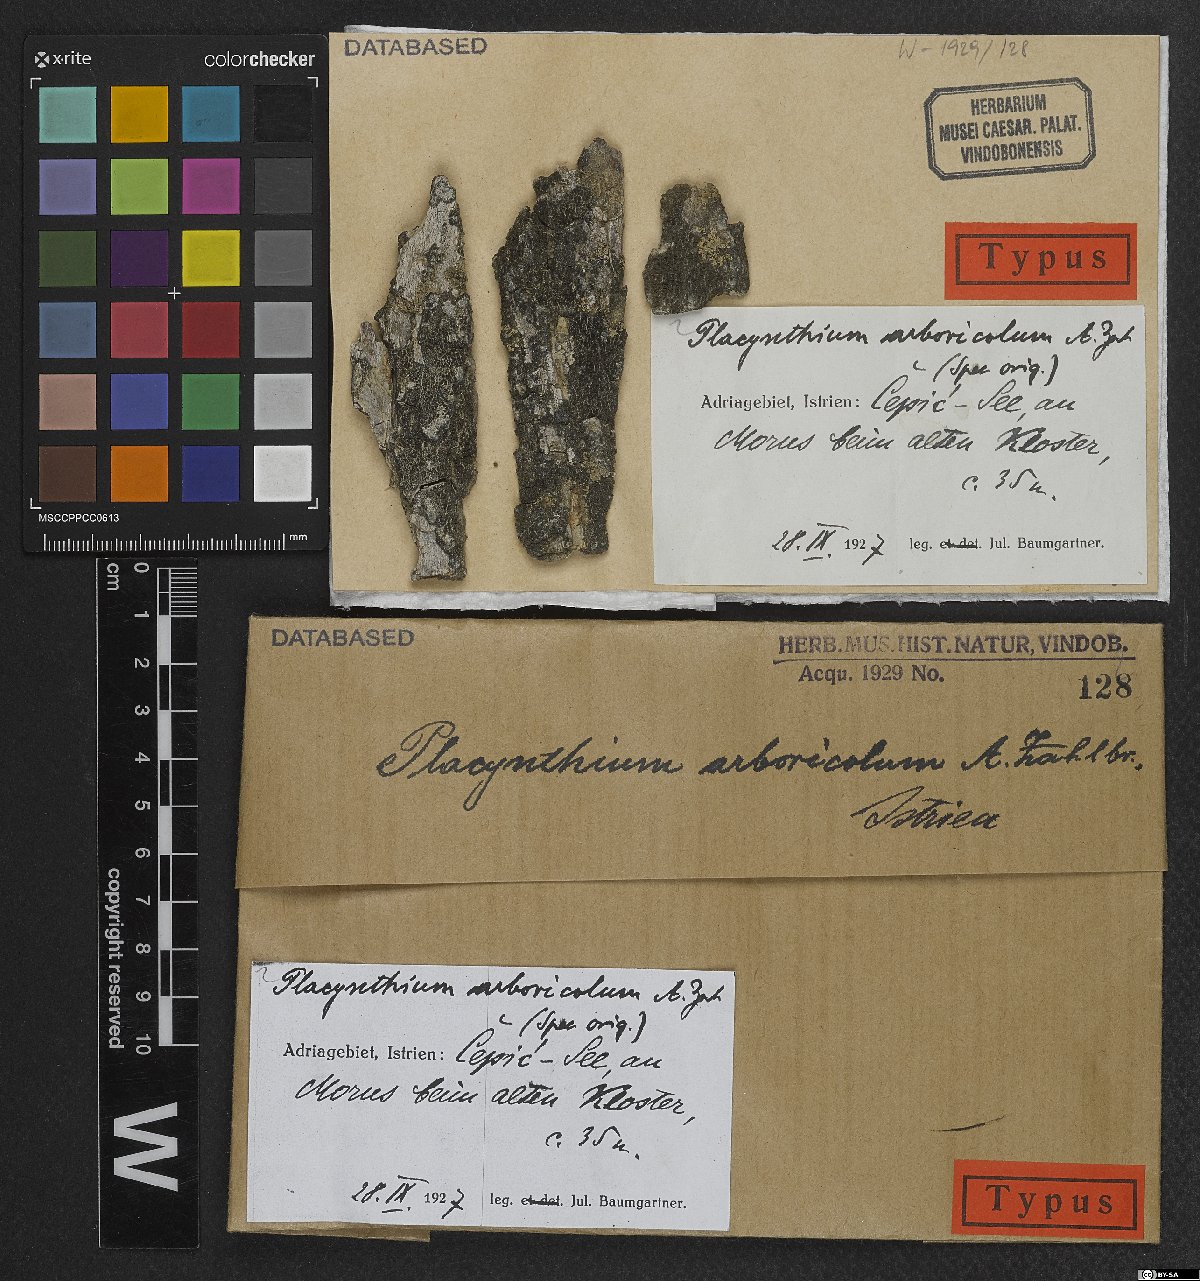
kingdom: Fungi
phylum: Ascomycota
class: Lecanoromycetes
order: Peltigerales
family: Placynthiaceae
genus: Placynthium
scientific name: Placynthium arboricola
